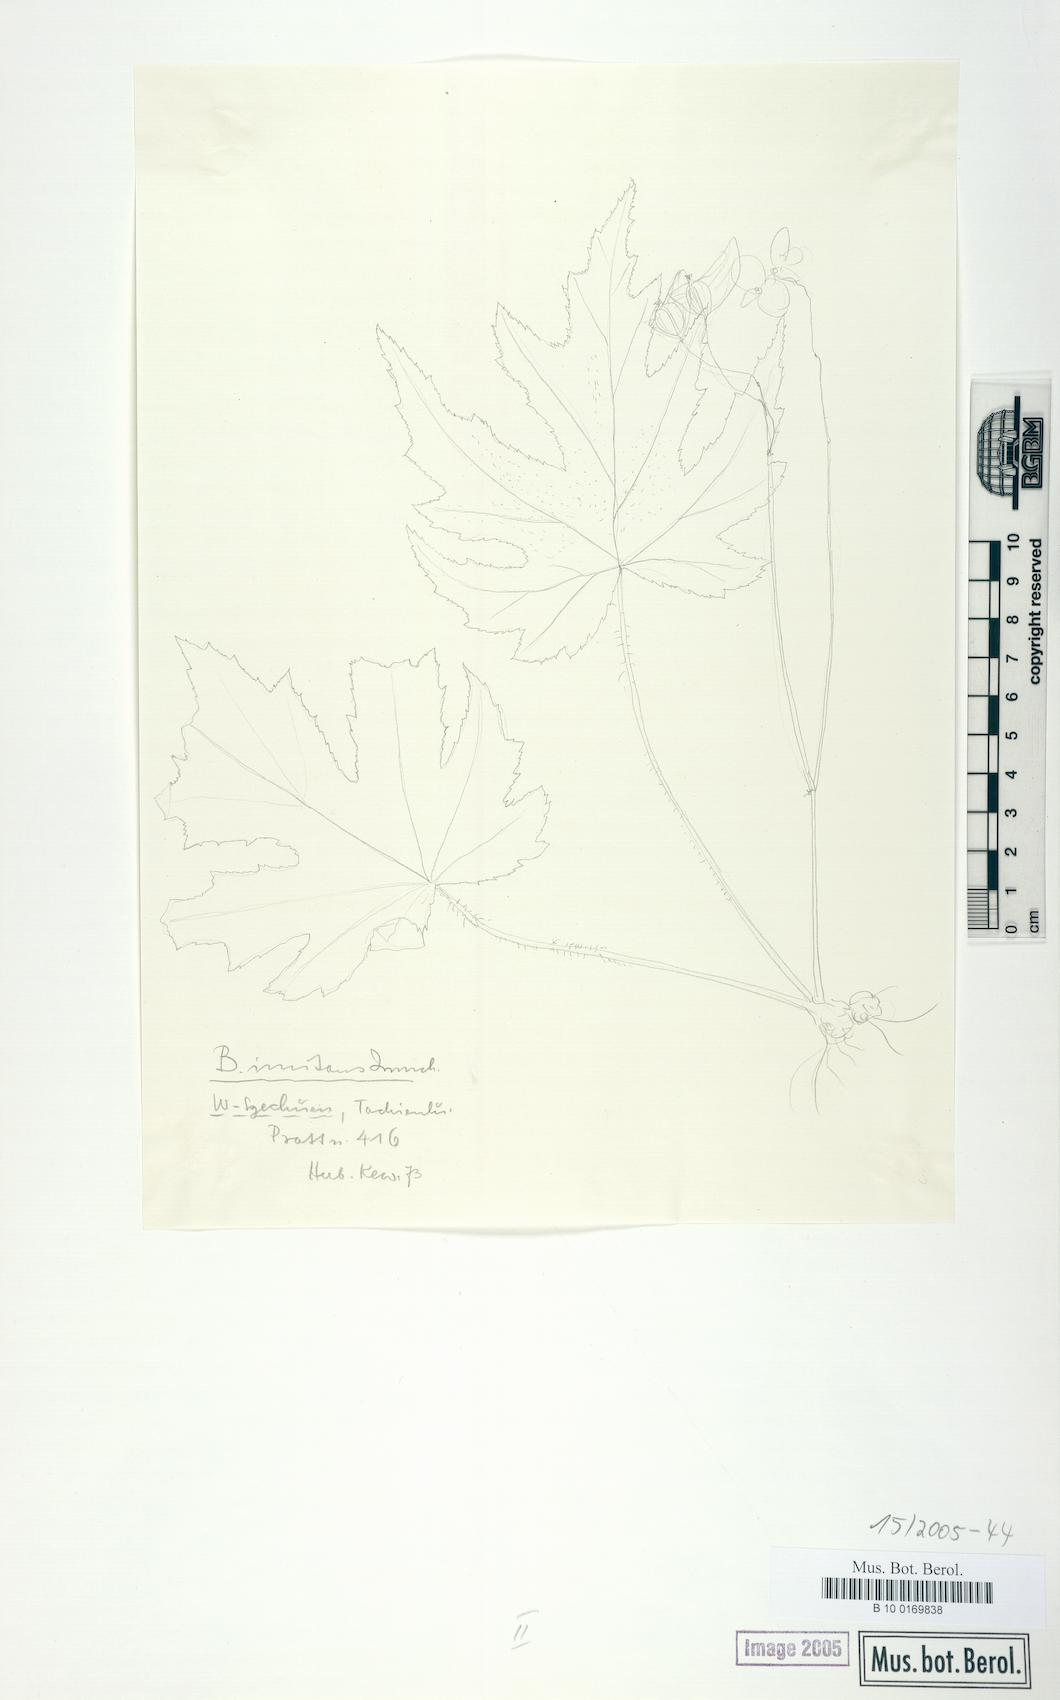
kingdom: Plantae
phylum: Tracheophyta
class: Magnoliopsida
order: Cucurbitales
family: Begoniaceae
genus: Begonia
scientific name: Begonia imitans
